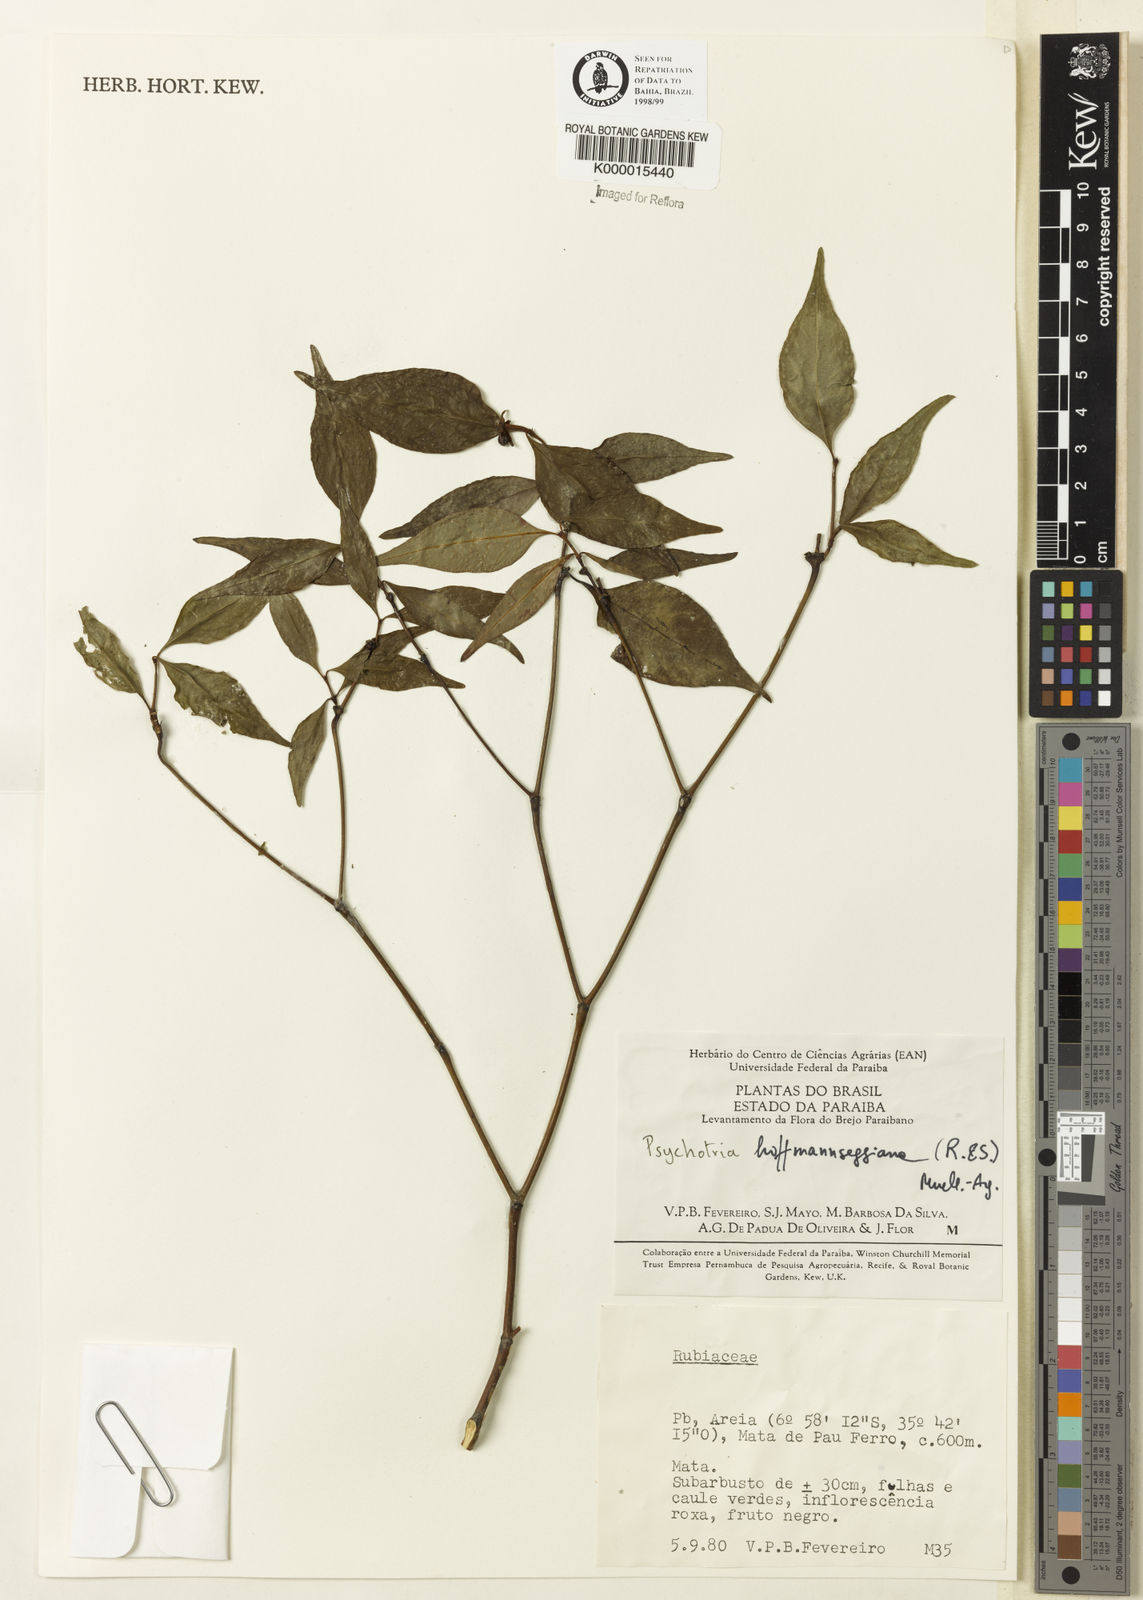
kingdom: Plantae
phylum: Tracheophyta
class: Magnoliopsida
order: Gentianales
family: Rubiaceae
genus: Psychotria
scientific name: Psychotria
